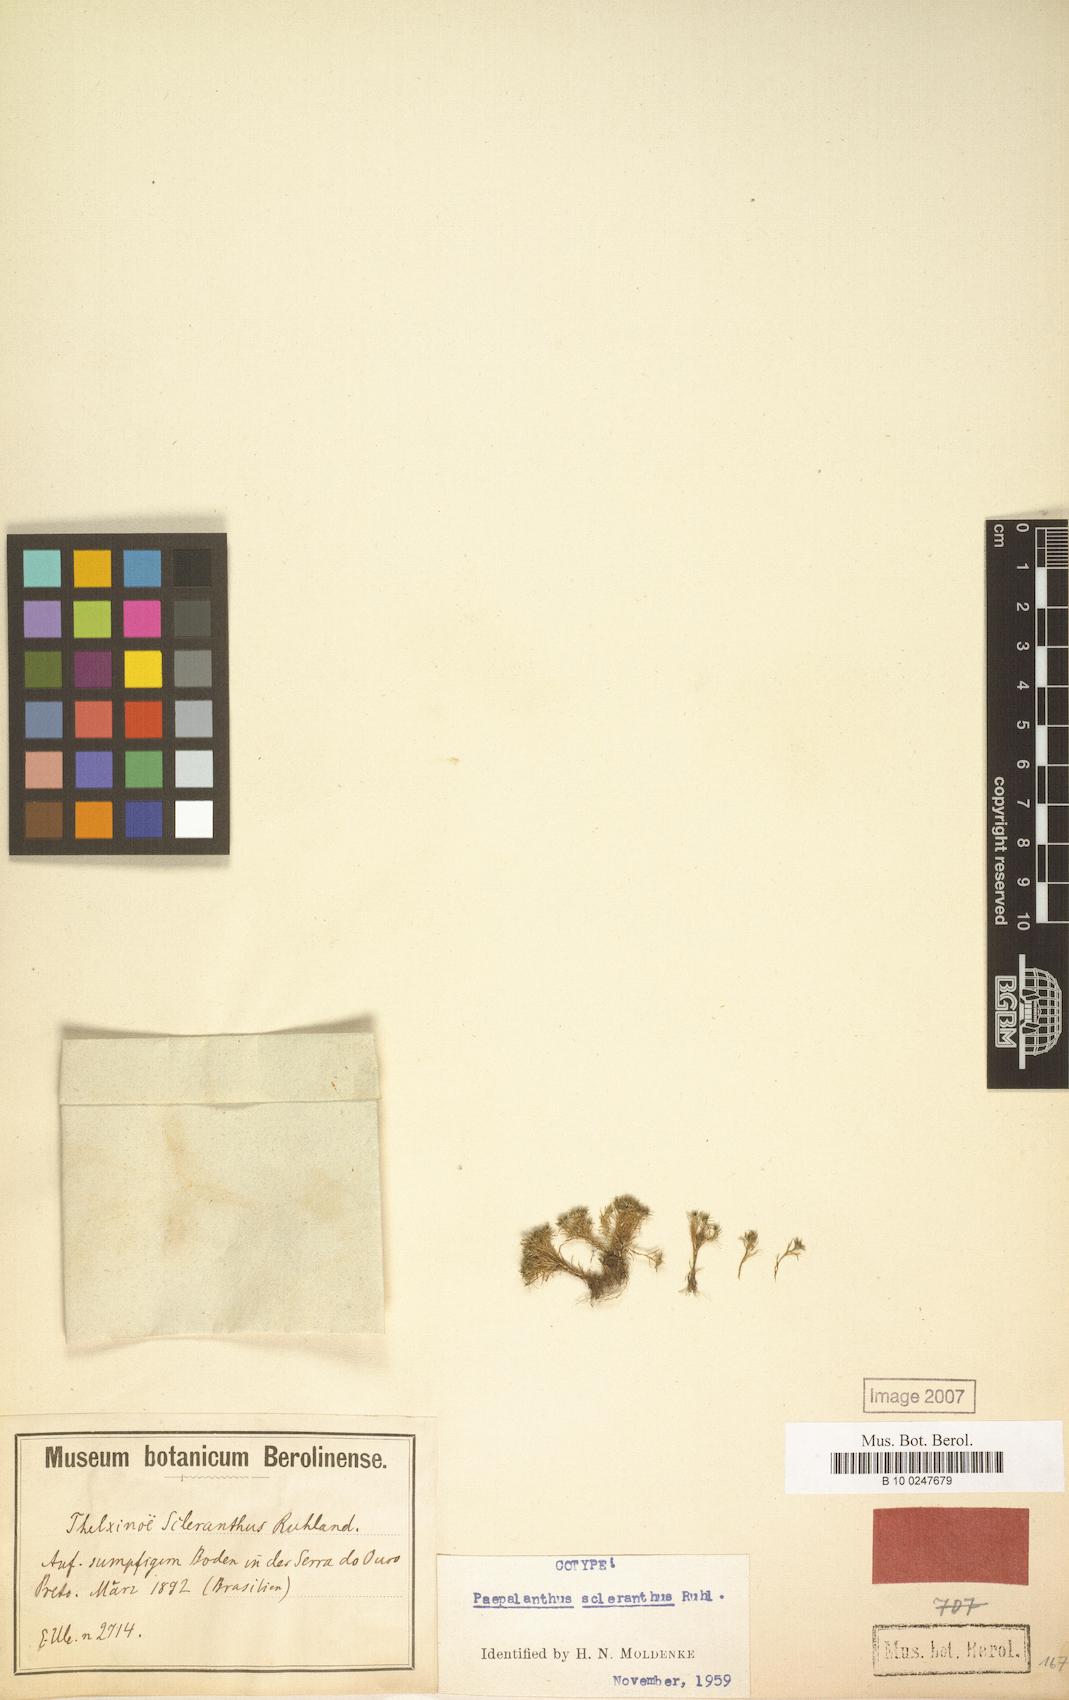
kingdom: Plantae
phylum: Tracheophyta
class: Liliopsida
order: Poales
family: Eriocaulaceae
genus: Paepalanthus
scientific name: Paepalanthus scleranthus
